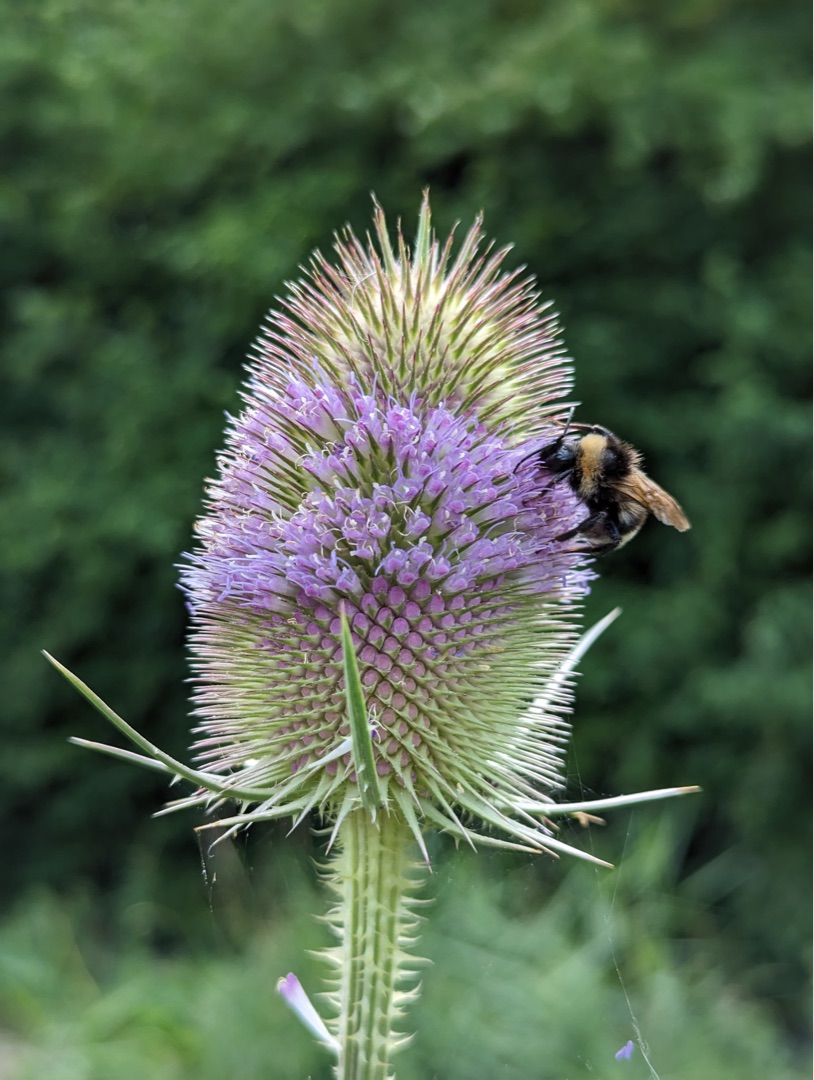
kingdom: Plantae
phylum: Tracheophyta
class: Magnoliopsida
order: Dipsacales
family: Caprifoliaceae
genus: Dipsacus
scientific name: Dipsacus fullonum
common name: Gærde-kartebolle
